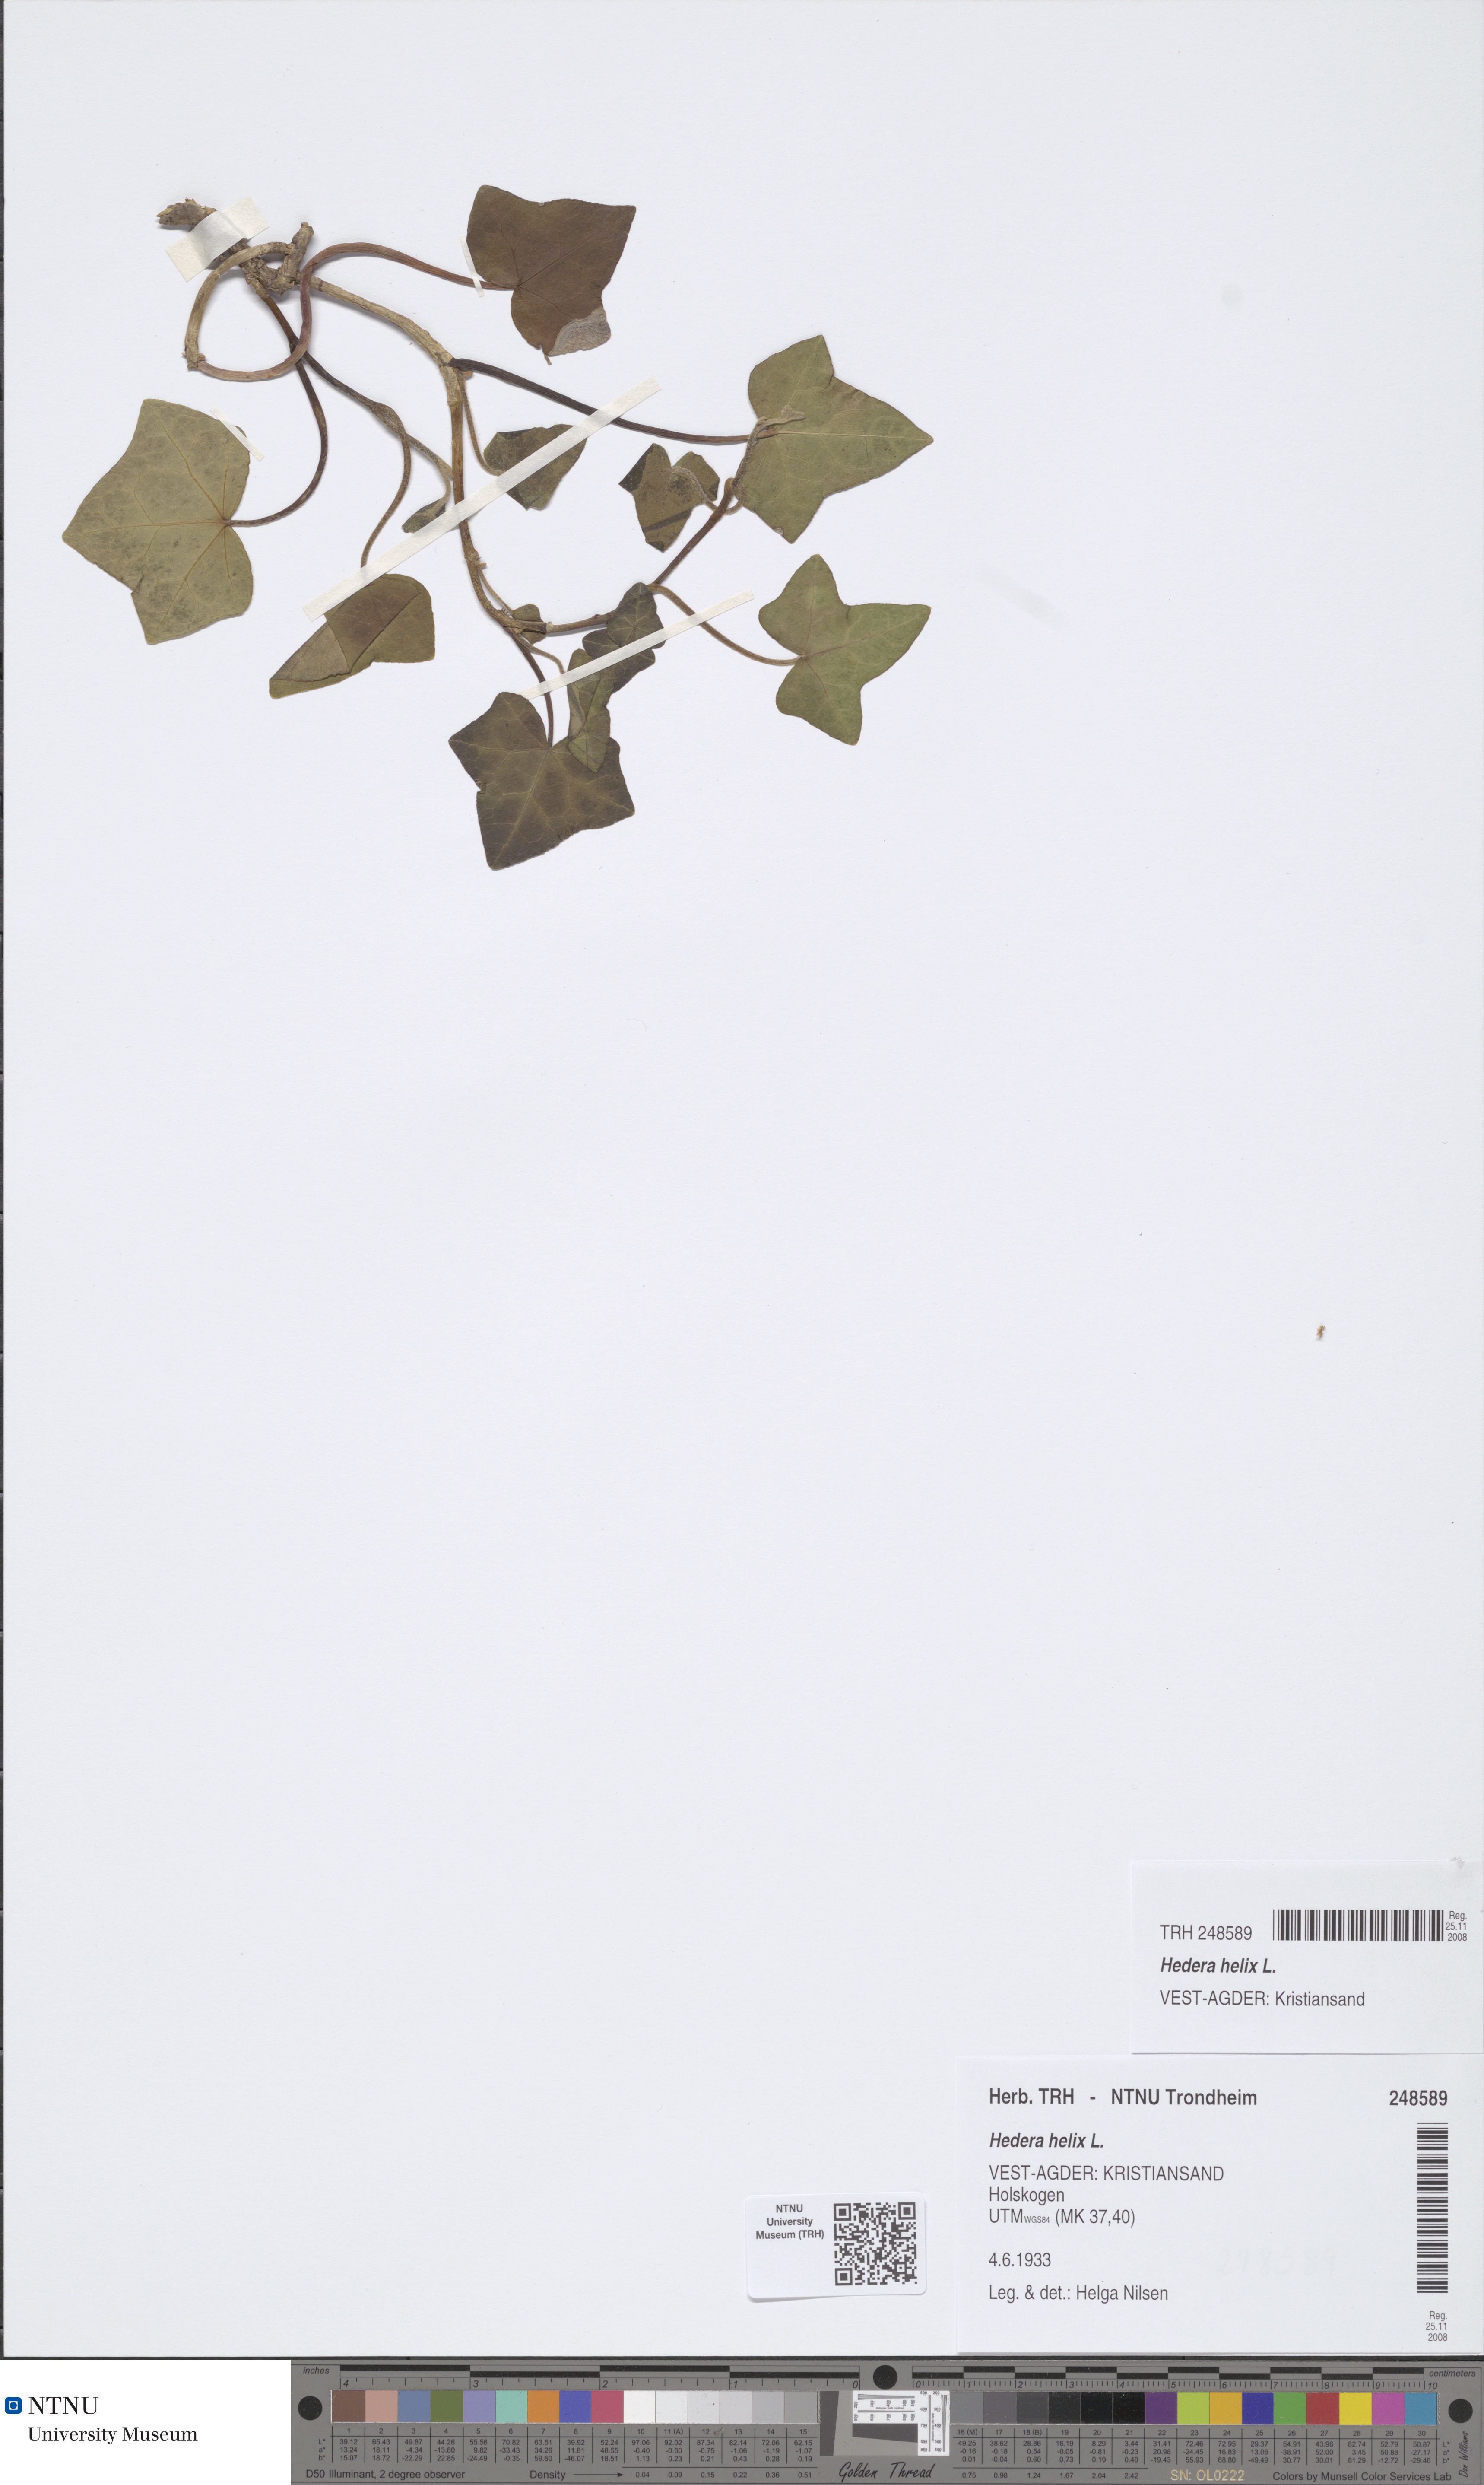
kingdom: Plantae
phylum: Tracheophyta
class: Magnoliopsida
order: Apiales
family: Araliaceae
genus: Hedera
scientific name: Hedera helix
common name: Ivy
